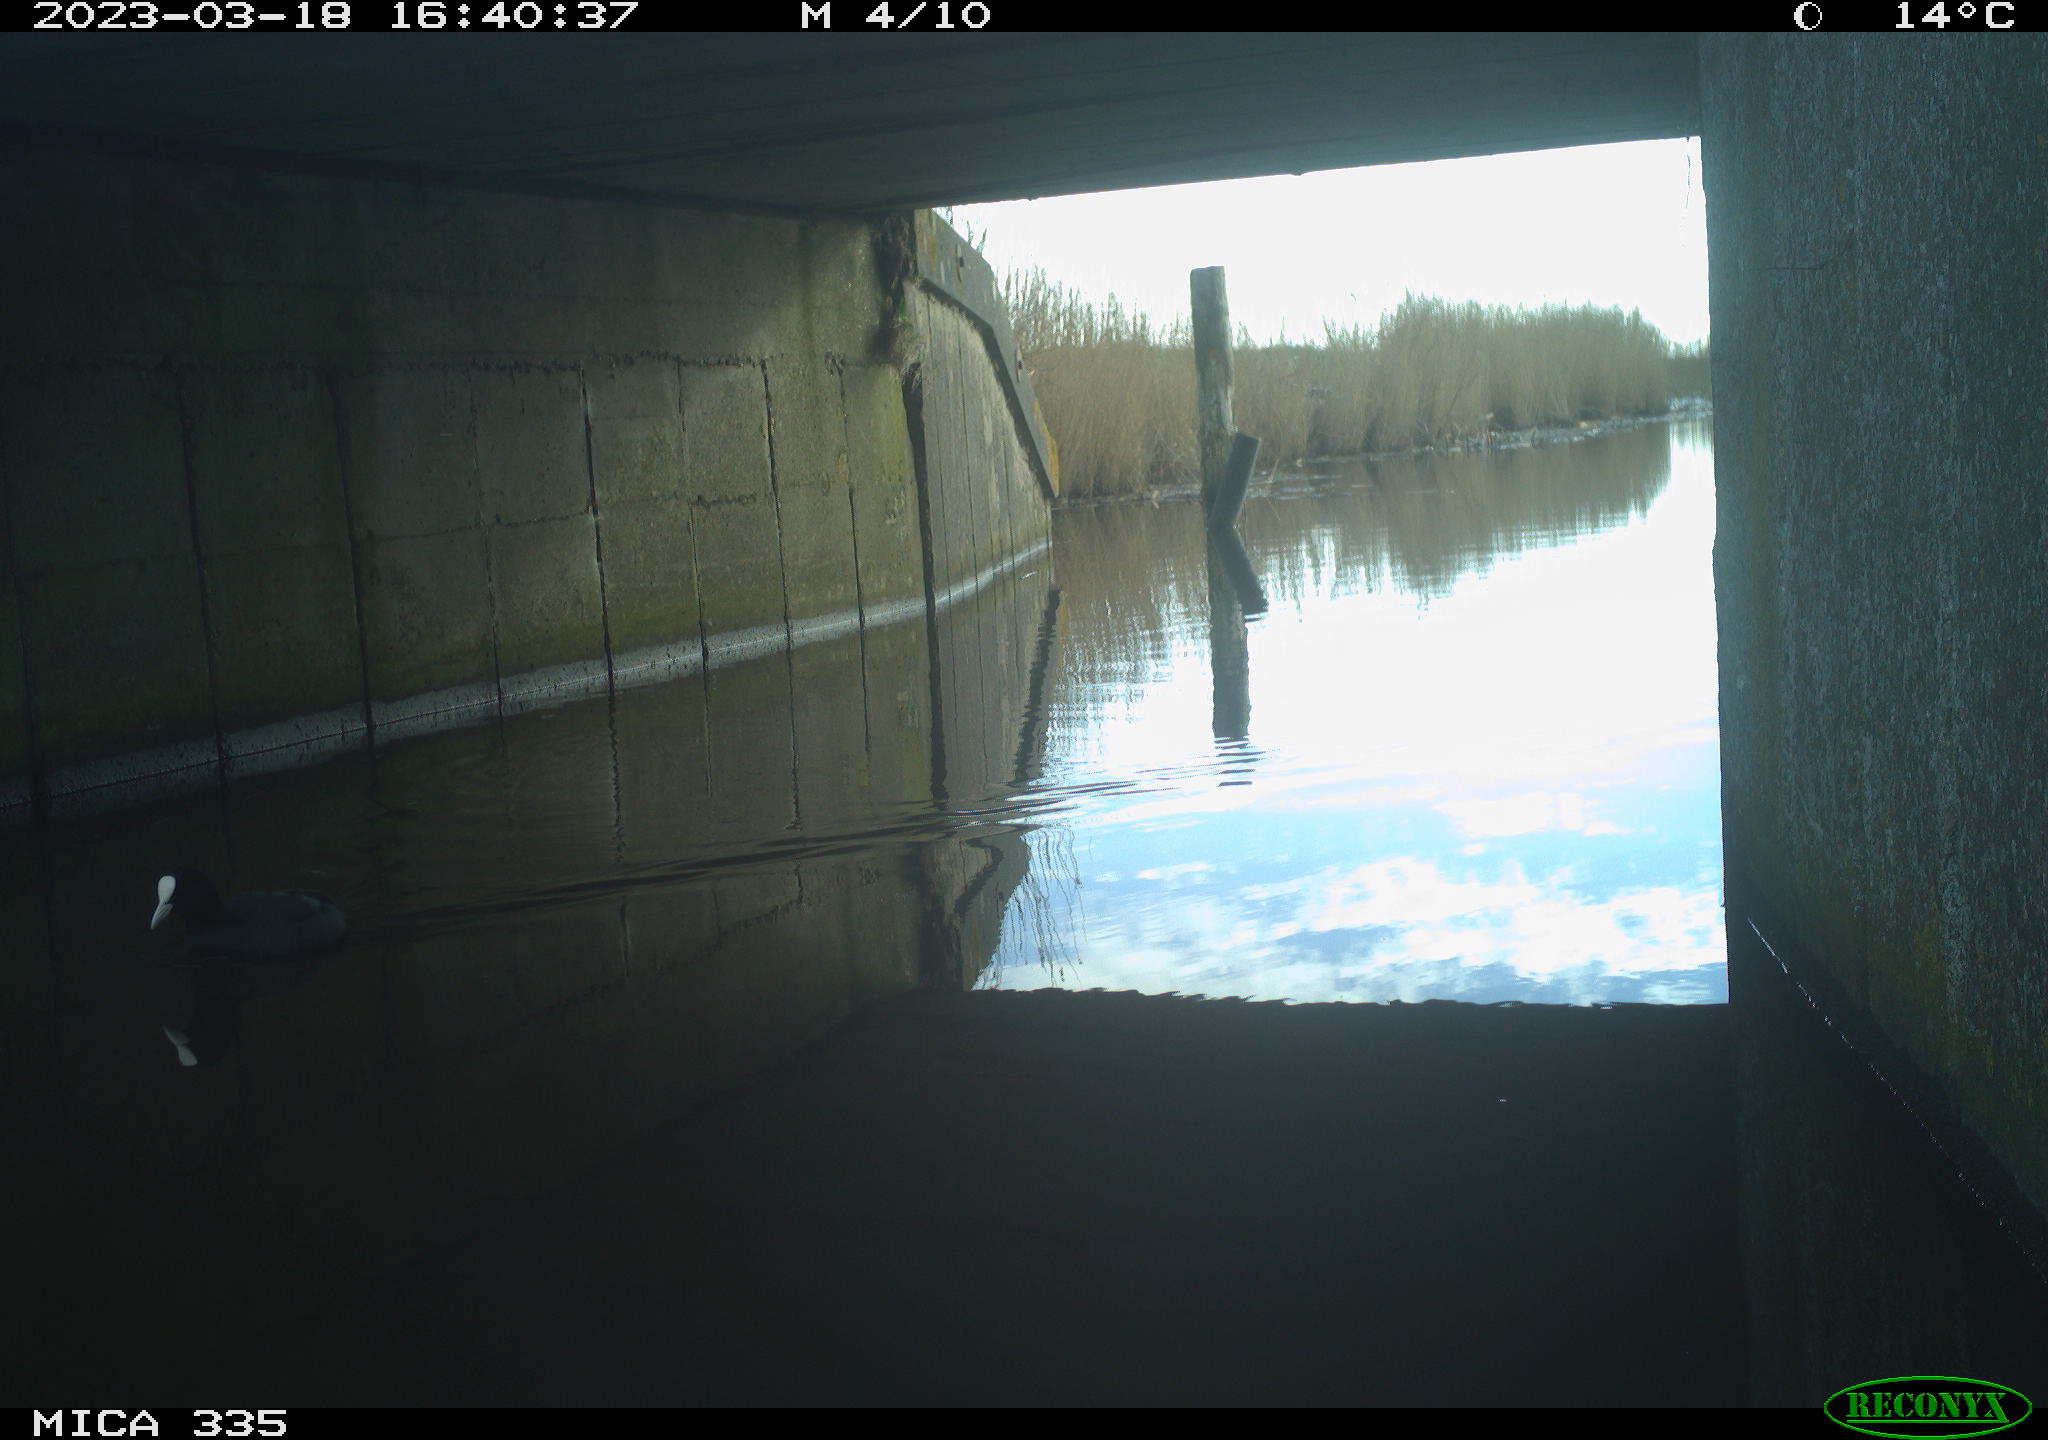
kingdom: Animalia
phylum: Chordata
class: Aves
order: Gruiformes
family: Rallidae
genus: Fulica
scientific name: Fulica atra
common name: Eurasian coot
